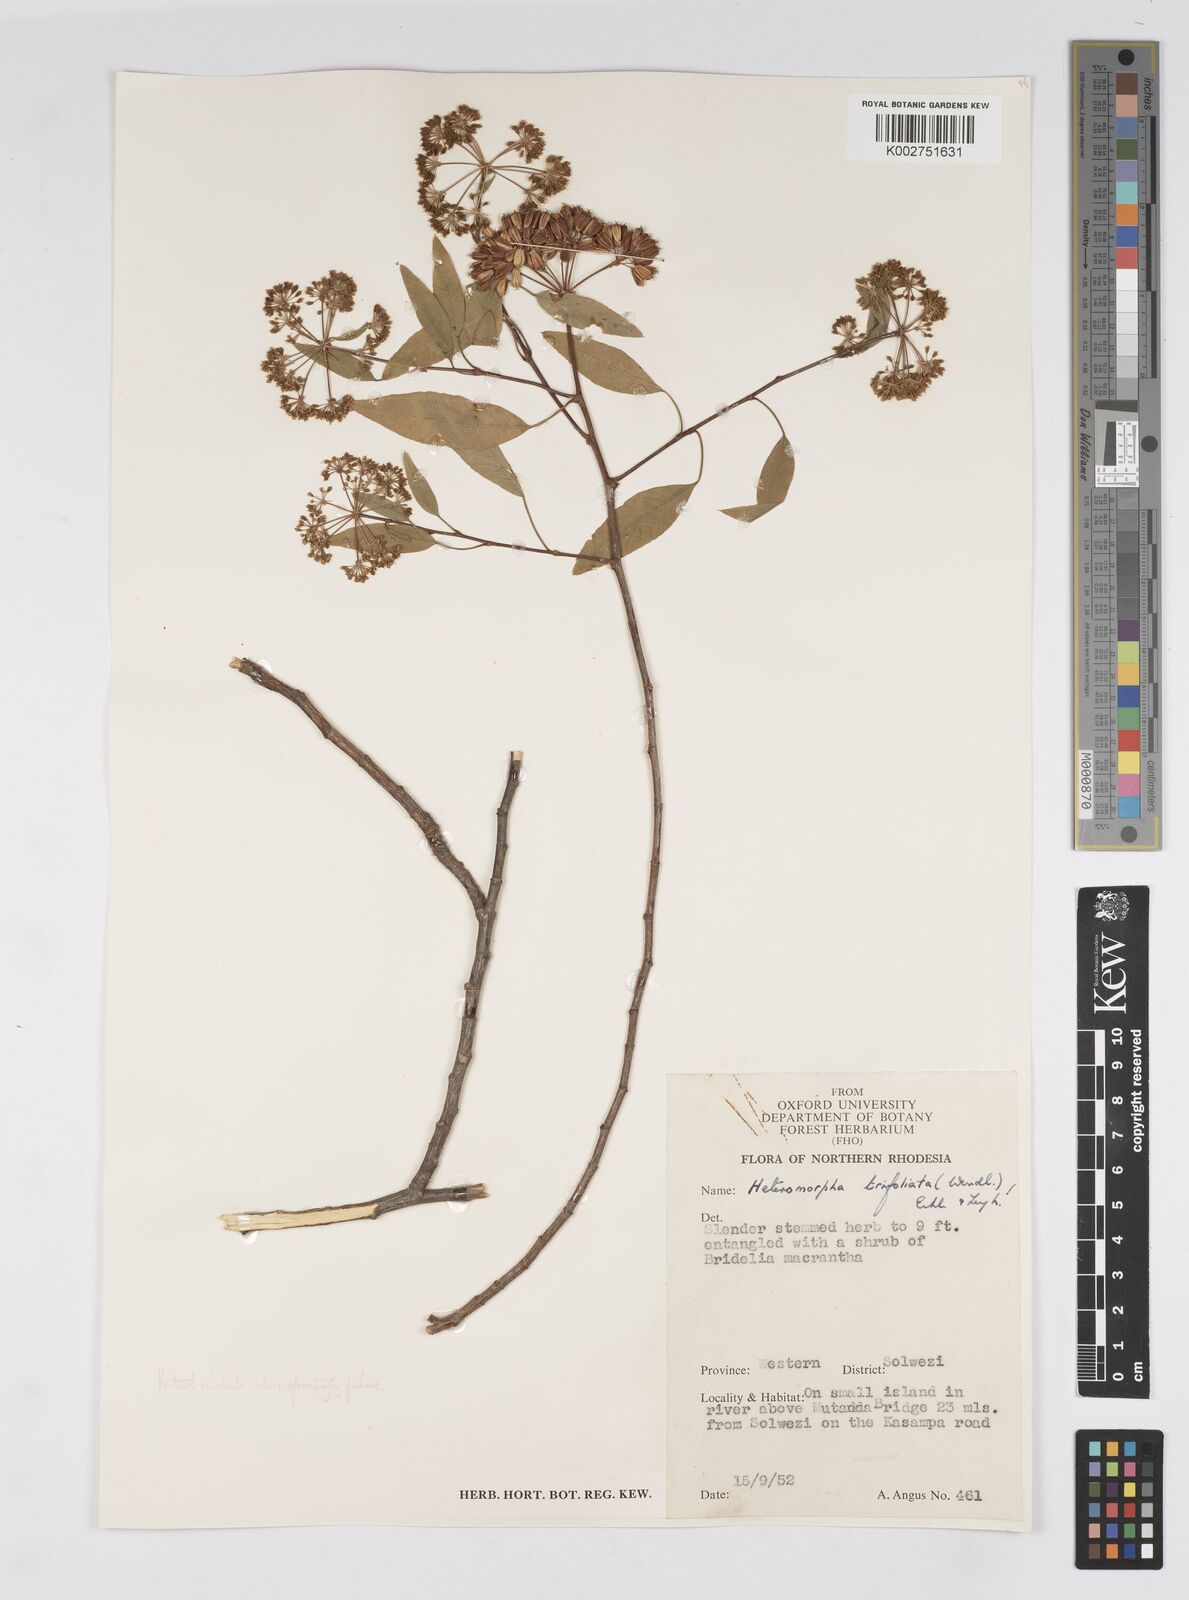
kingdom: Plantae
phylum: Tracheophyta
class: Magnoliopsida
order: Apiales
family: Apiaceae
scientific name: Apiaceae
